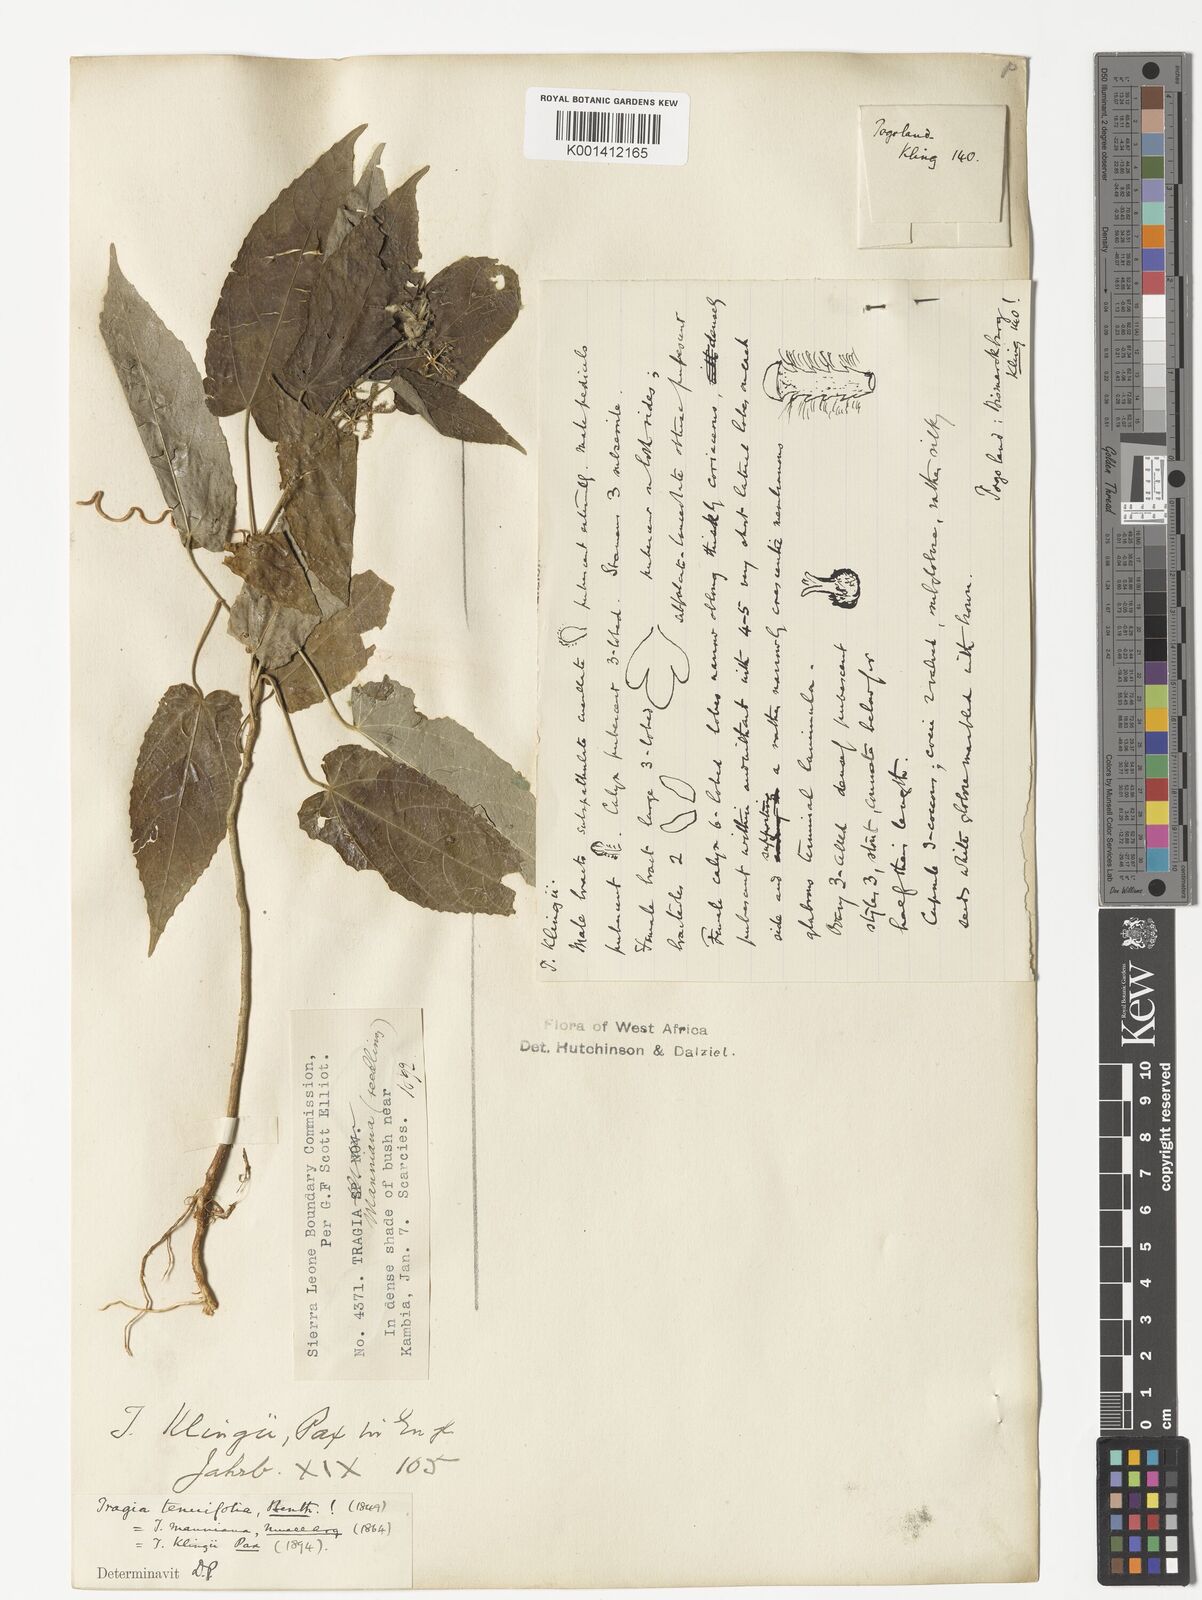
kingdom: Plantae
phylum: Tracheophyta
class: Magnoliopsida
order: Malpighiales
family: Euphorbiaceae
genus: Tragia
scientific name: Tragia tenuifolia
